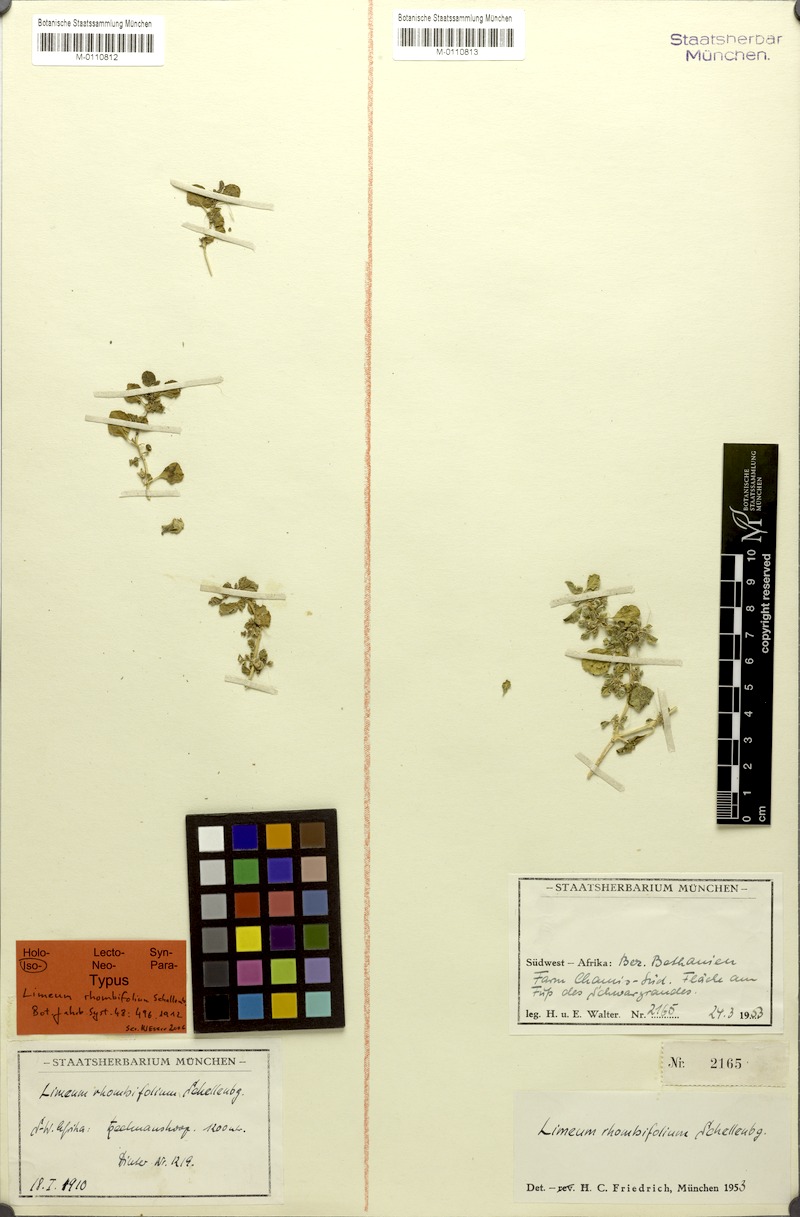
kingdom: Plantae
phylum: Tracheophyta
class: Magnoliopsida
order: Caryophyllales
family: Limeaceae
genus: Limeum
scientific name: Limeum rhombifolium
